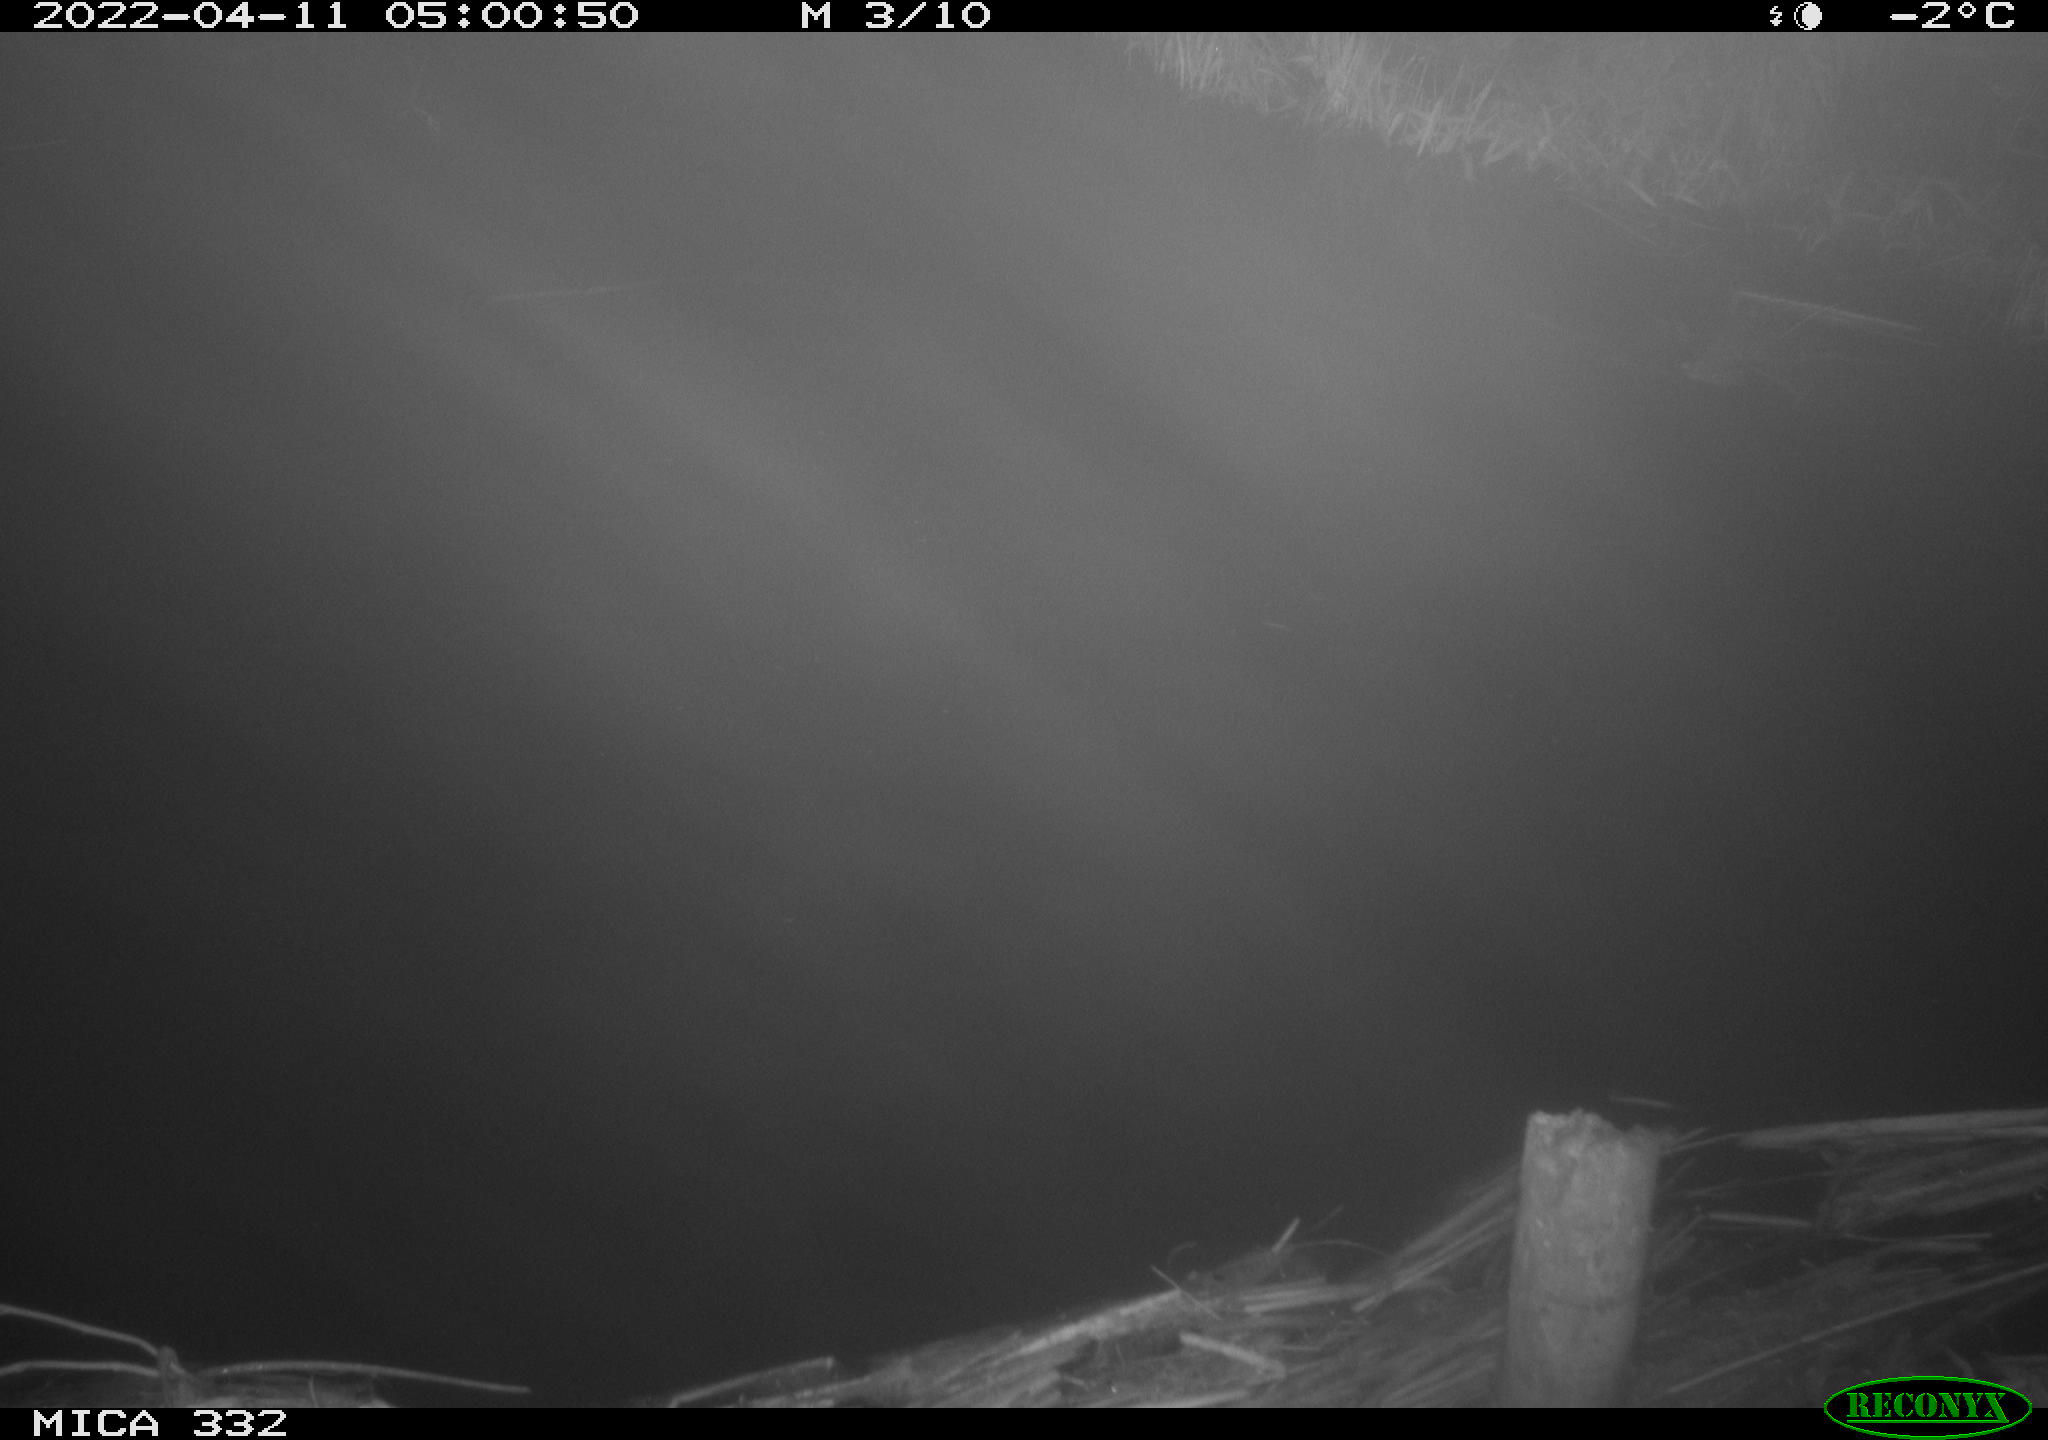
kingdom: Animalia
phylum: Chordata
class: Aves
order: Anseriformes
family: Anatidae
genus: Anas
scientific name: Anas platyrhynchos
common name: Mallard
